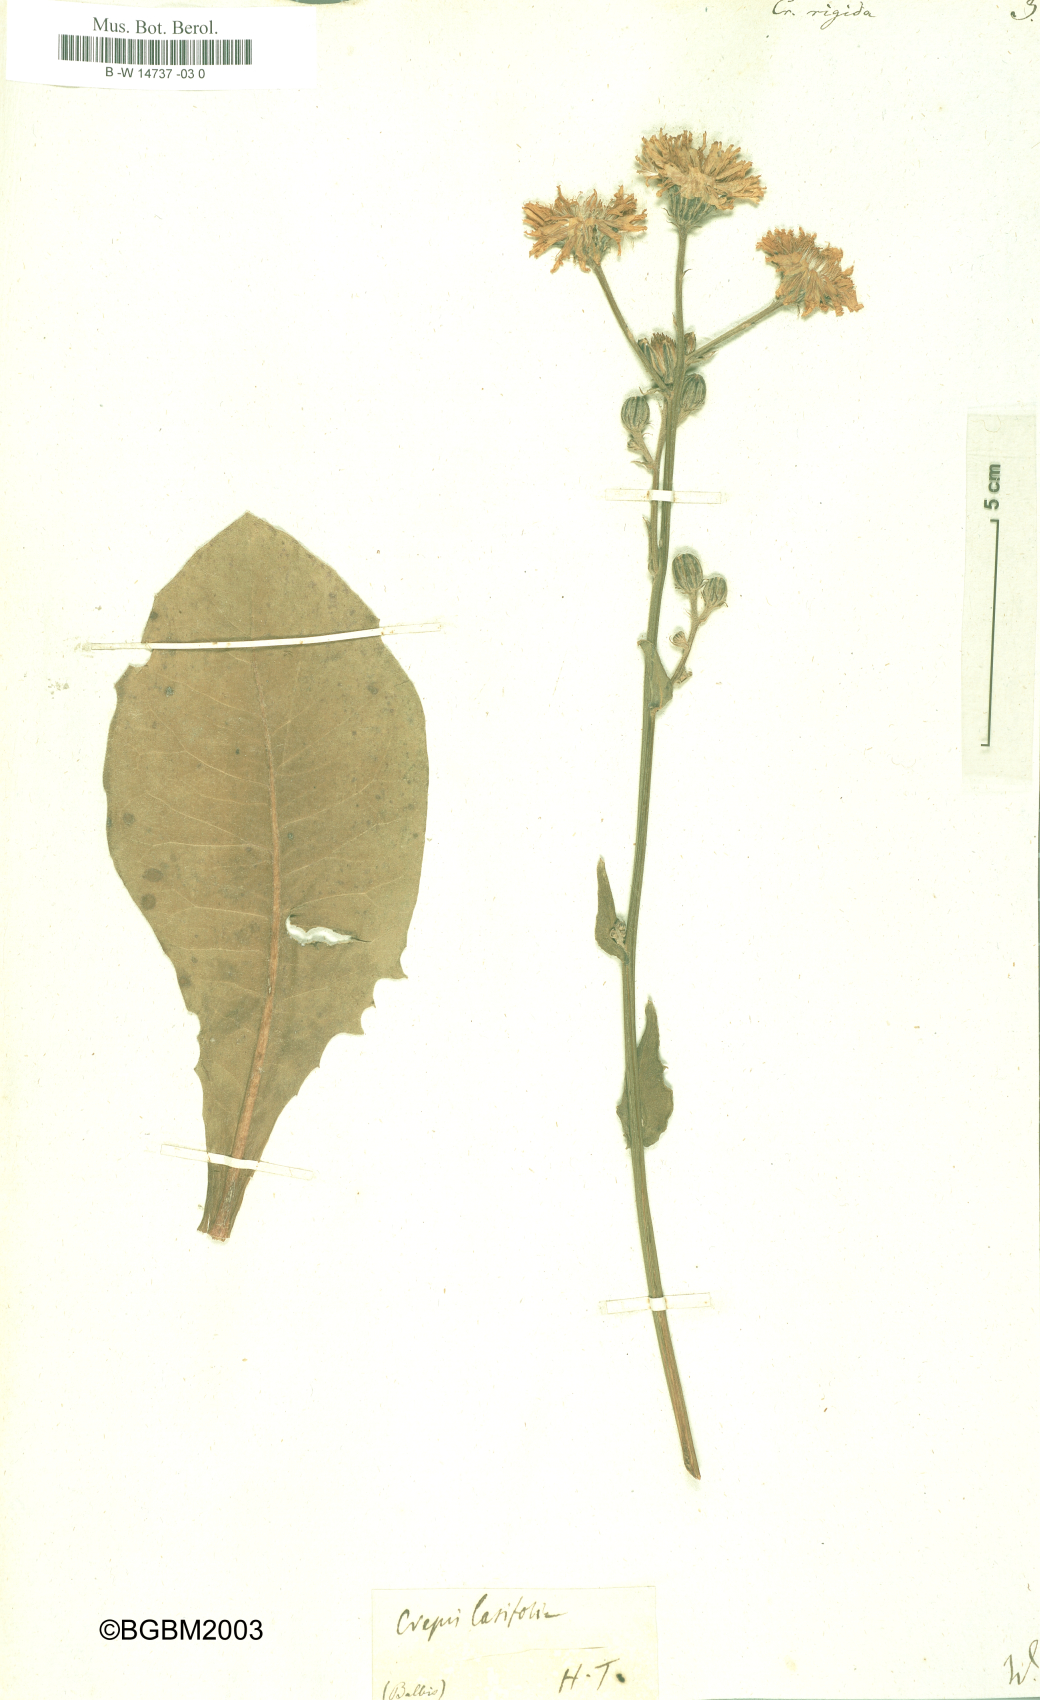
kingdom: Plantae
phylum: Tracheophyta
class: Magnoliopsida
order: Asterales
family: Asteraceae
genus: Crepis
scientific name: Crepis pannonica
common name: Pasture hawksbeard
